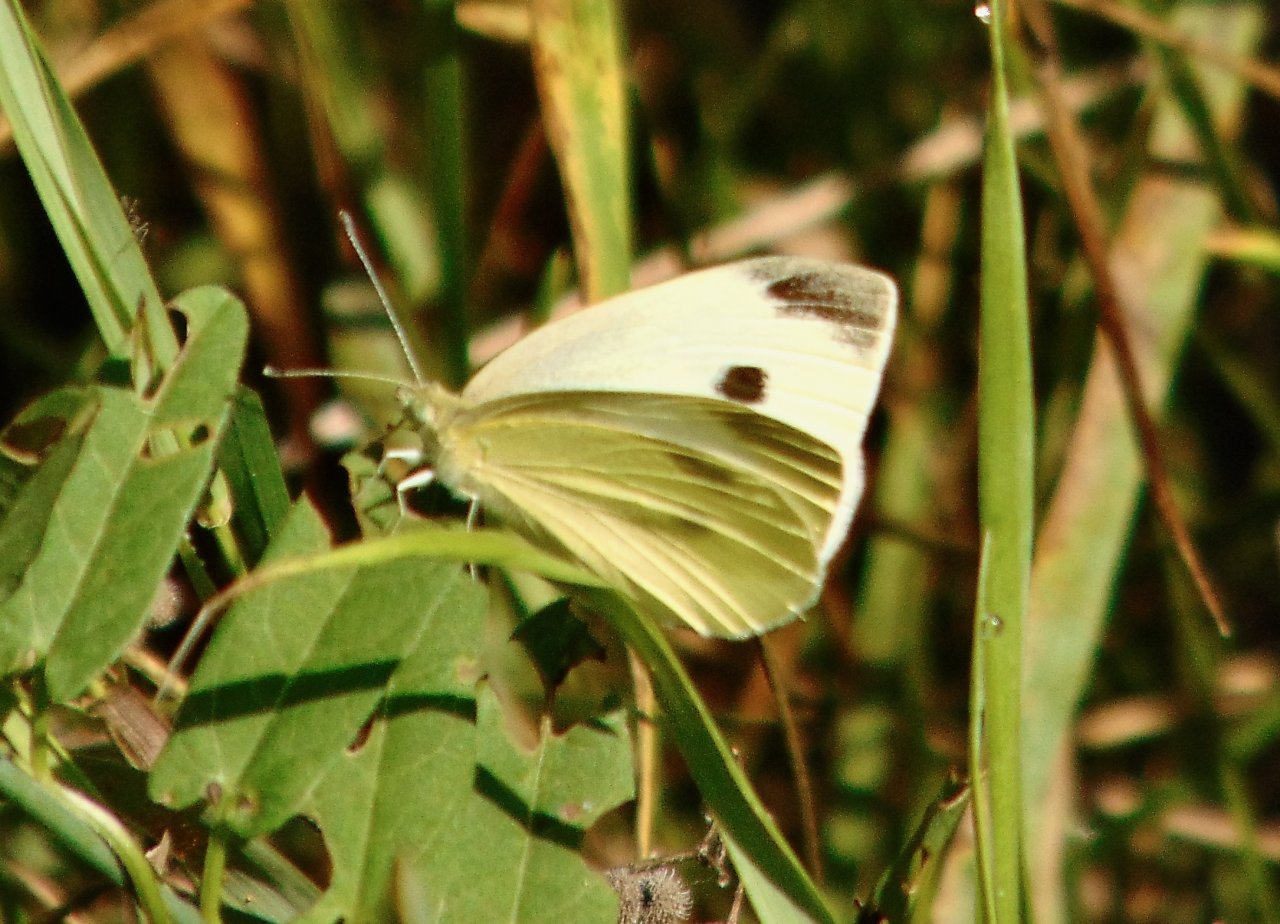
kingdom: Animalia
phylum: Arthropoda
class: Insecta
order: Lepidoptera
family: Pieridae
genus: Pieris
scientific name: Pieris rapae
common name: Cabbage White
